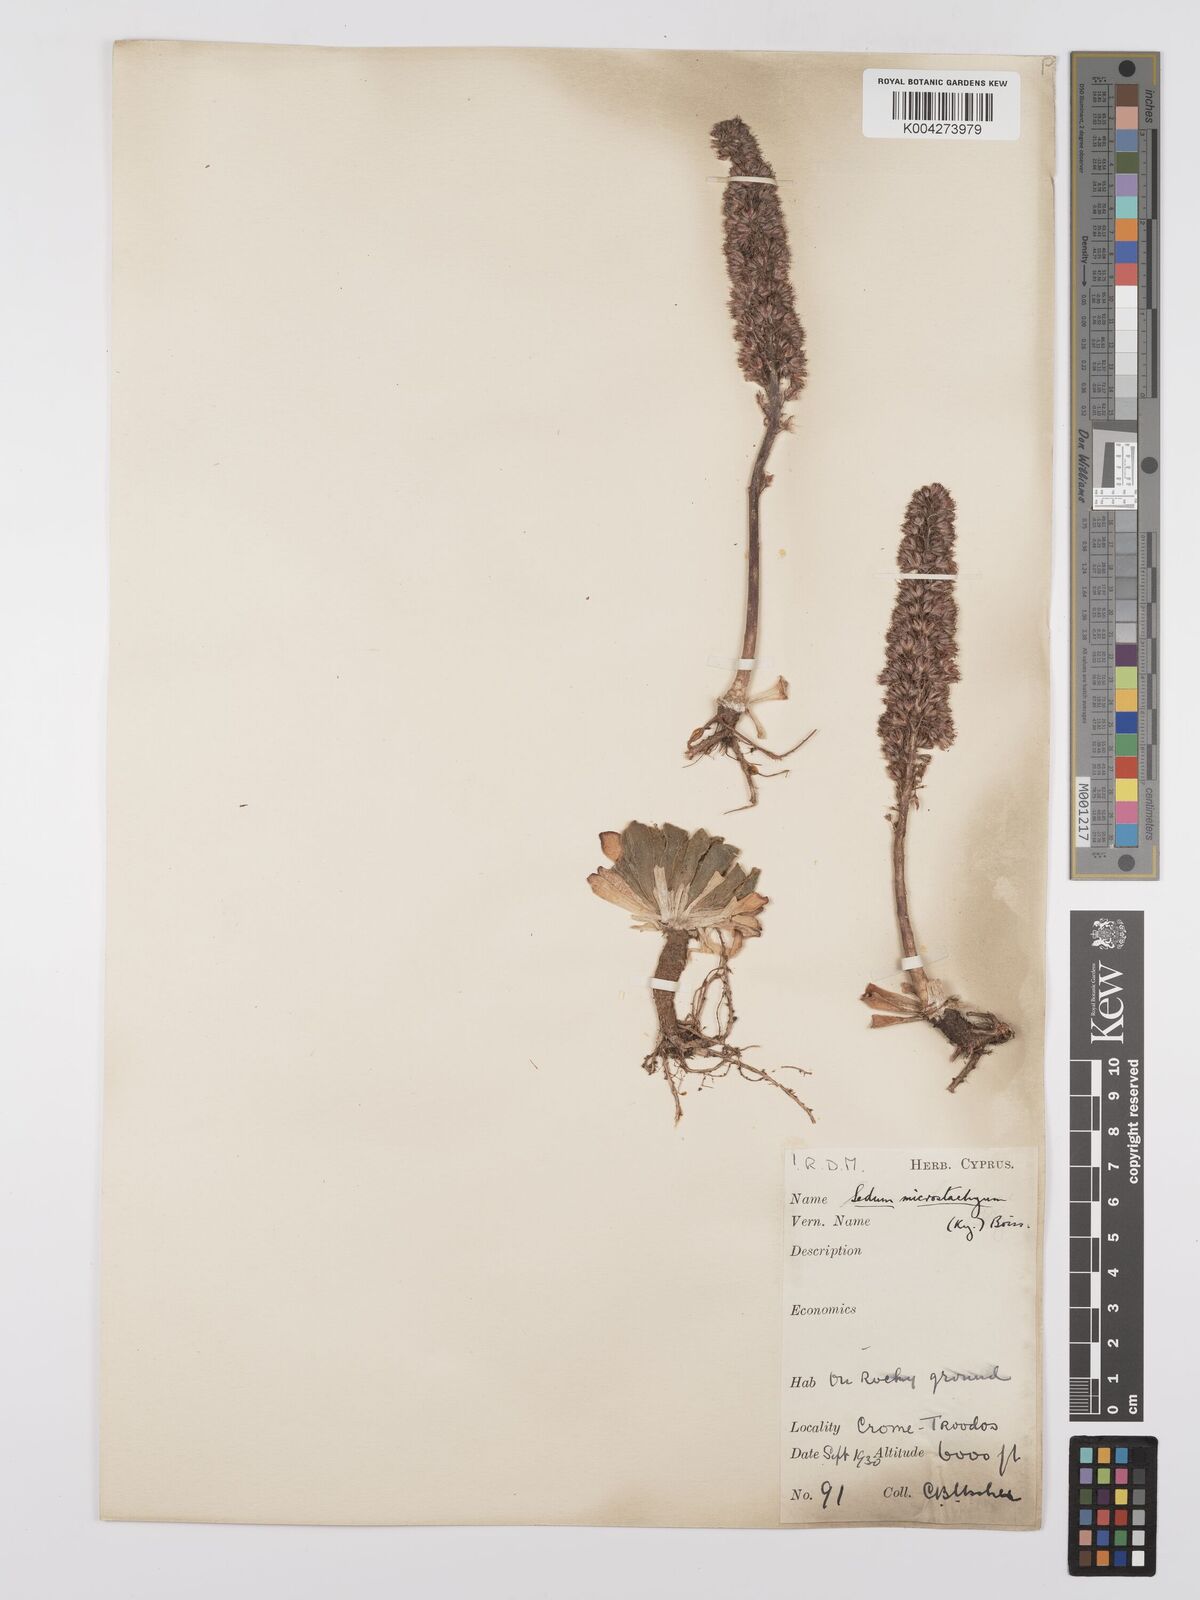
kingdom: Plantae
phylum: Tracheophyta
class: Magnoliopsida
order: Saxifragales
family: Crassulaceae
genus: Sedum
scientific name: Sedum microstachyum
